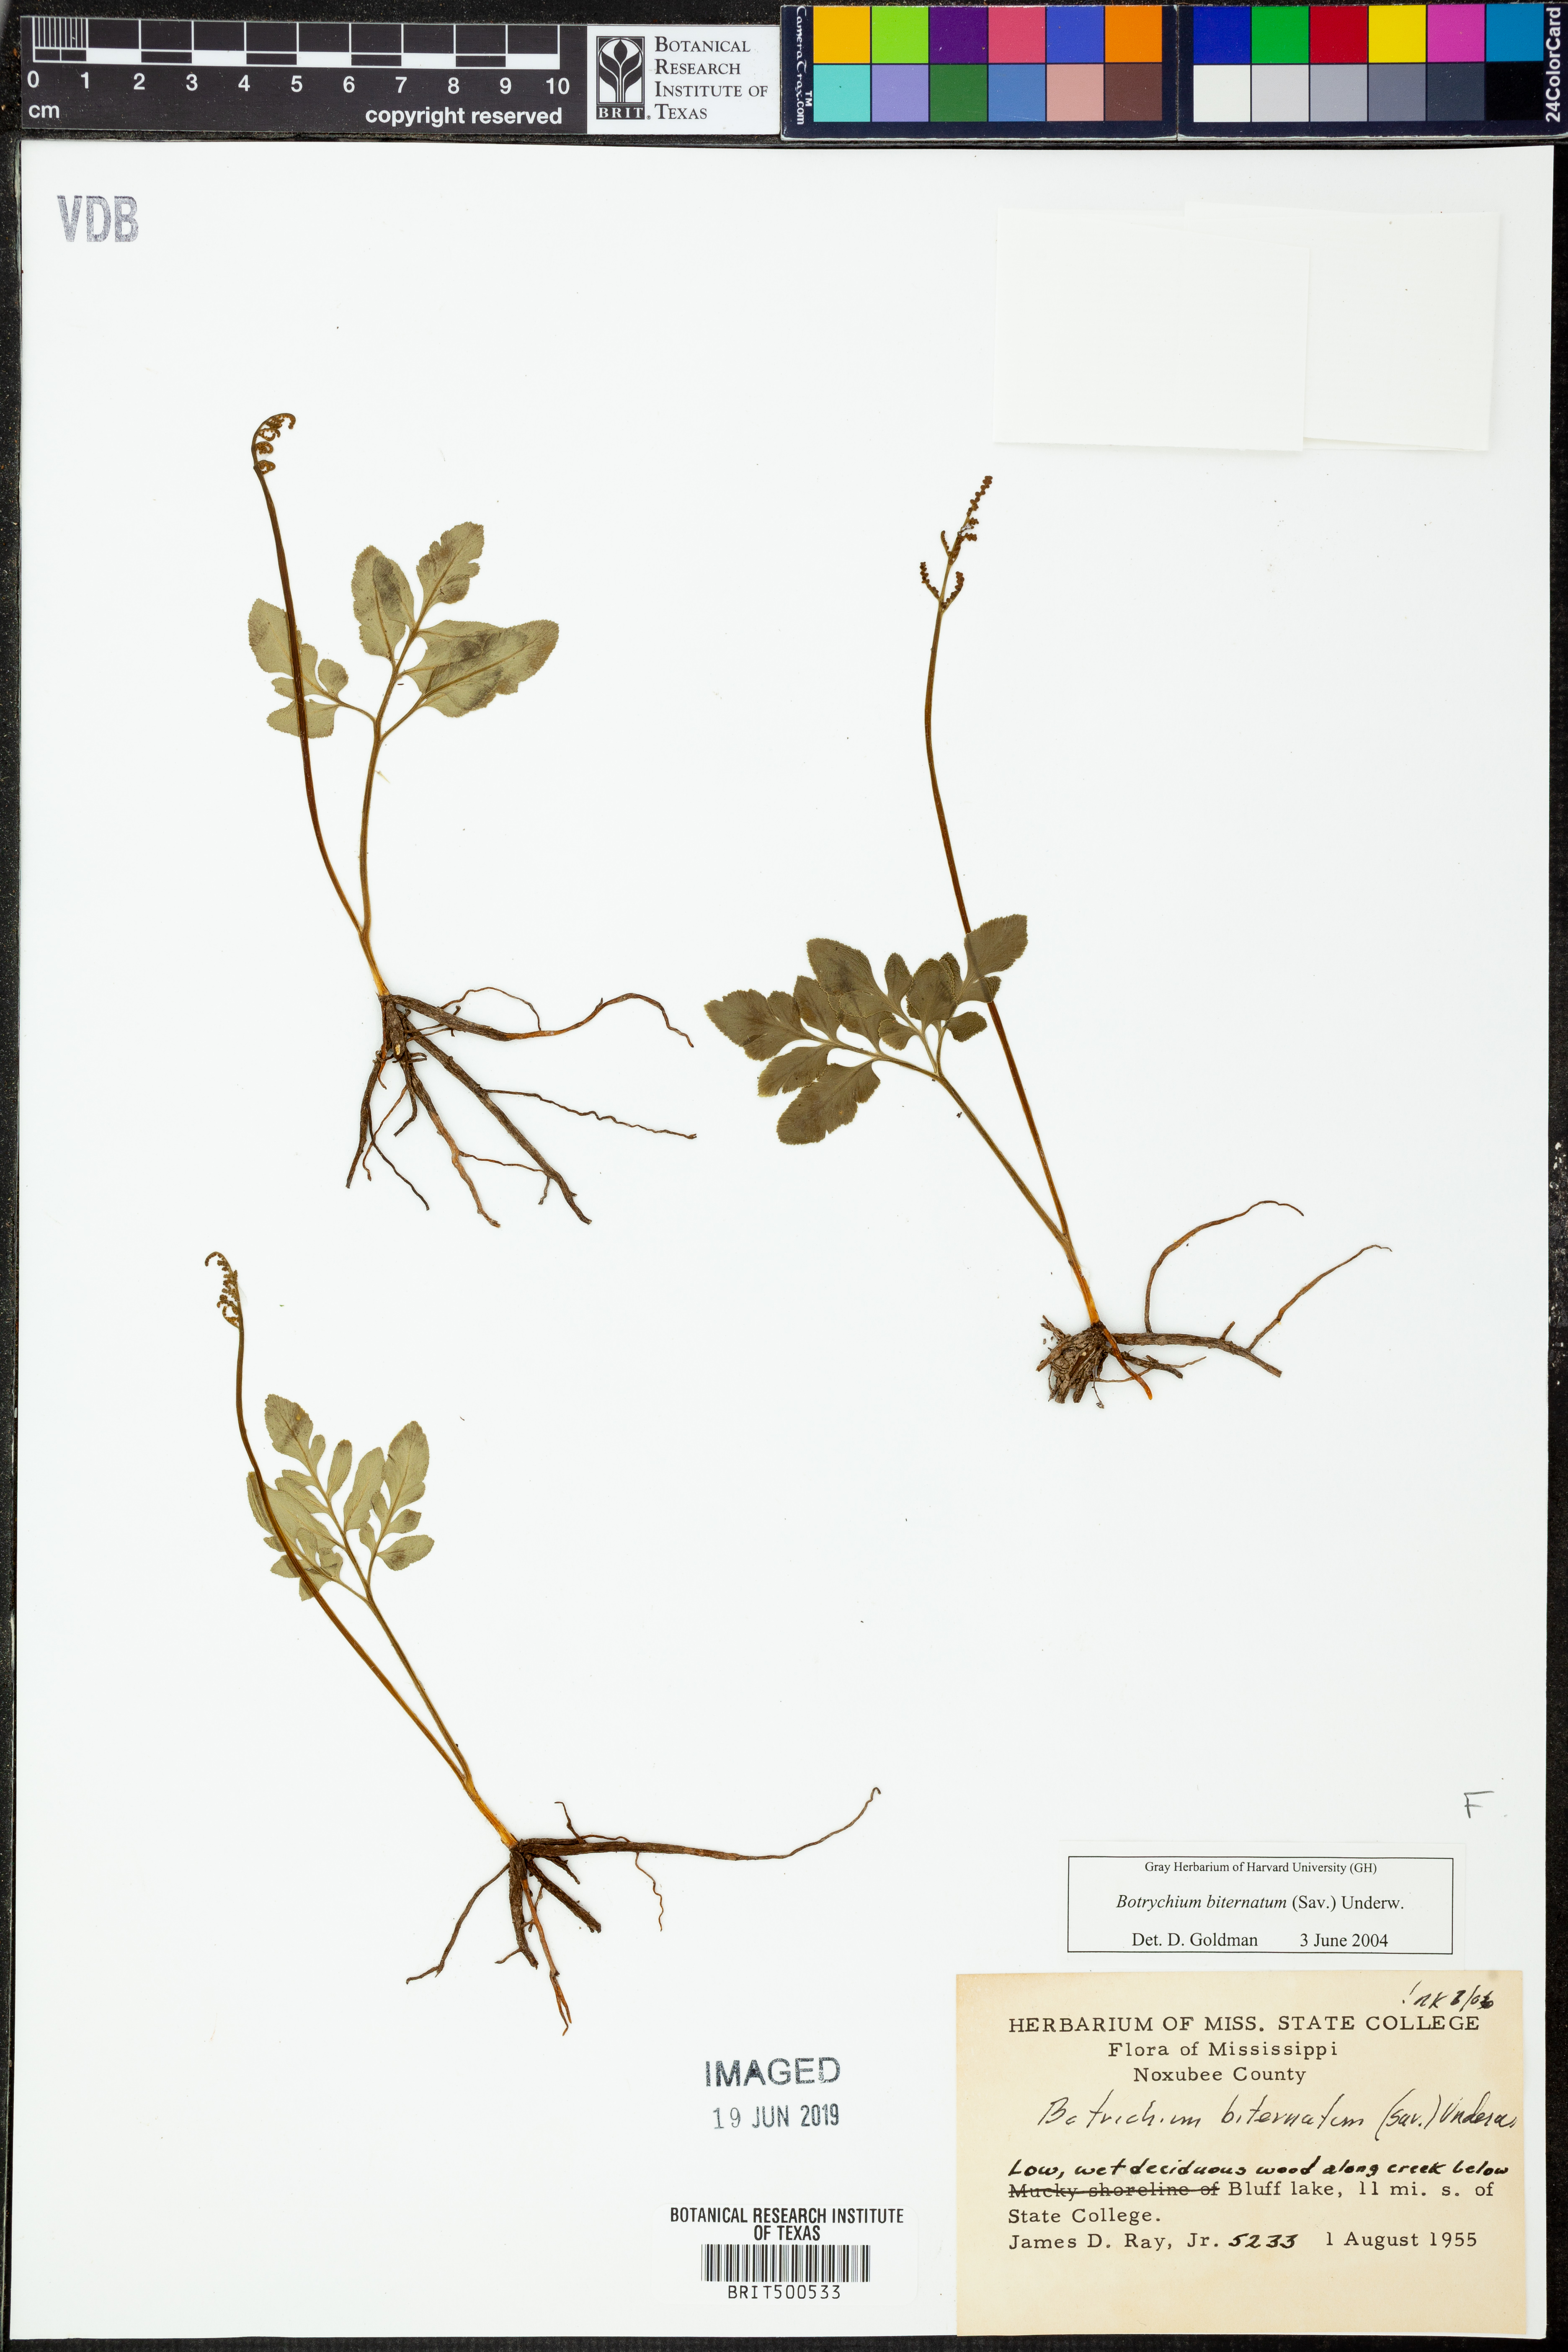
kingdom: Plantae
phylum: Tracheophyta
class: Polypodiopsida
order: Ophioglossales
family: Ophioglossaceae
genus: Sceptridium
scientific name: Sceptridium biternatum
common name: Sparse-lobed grapefern
